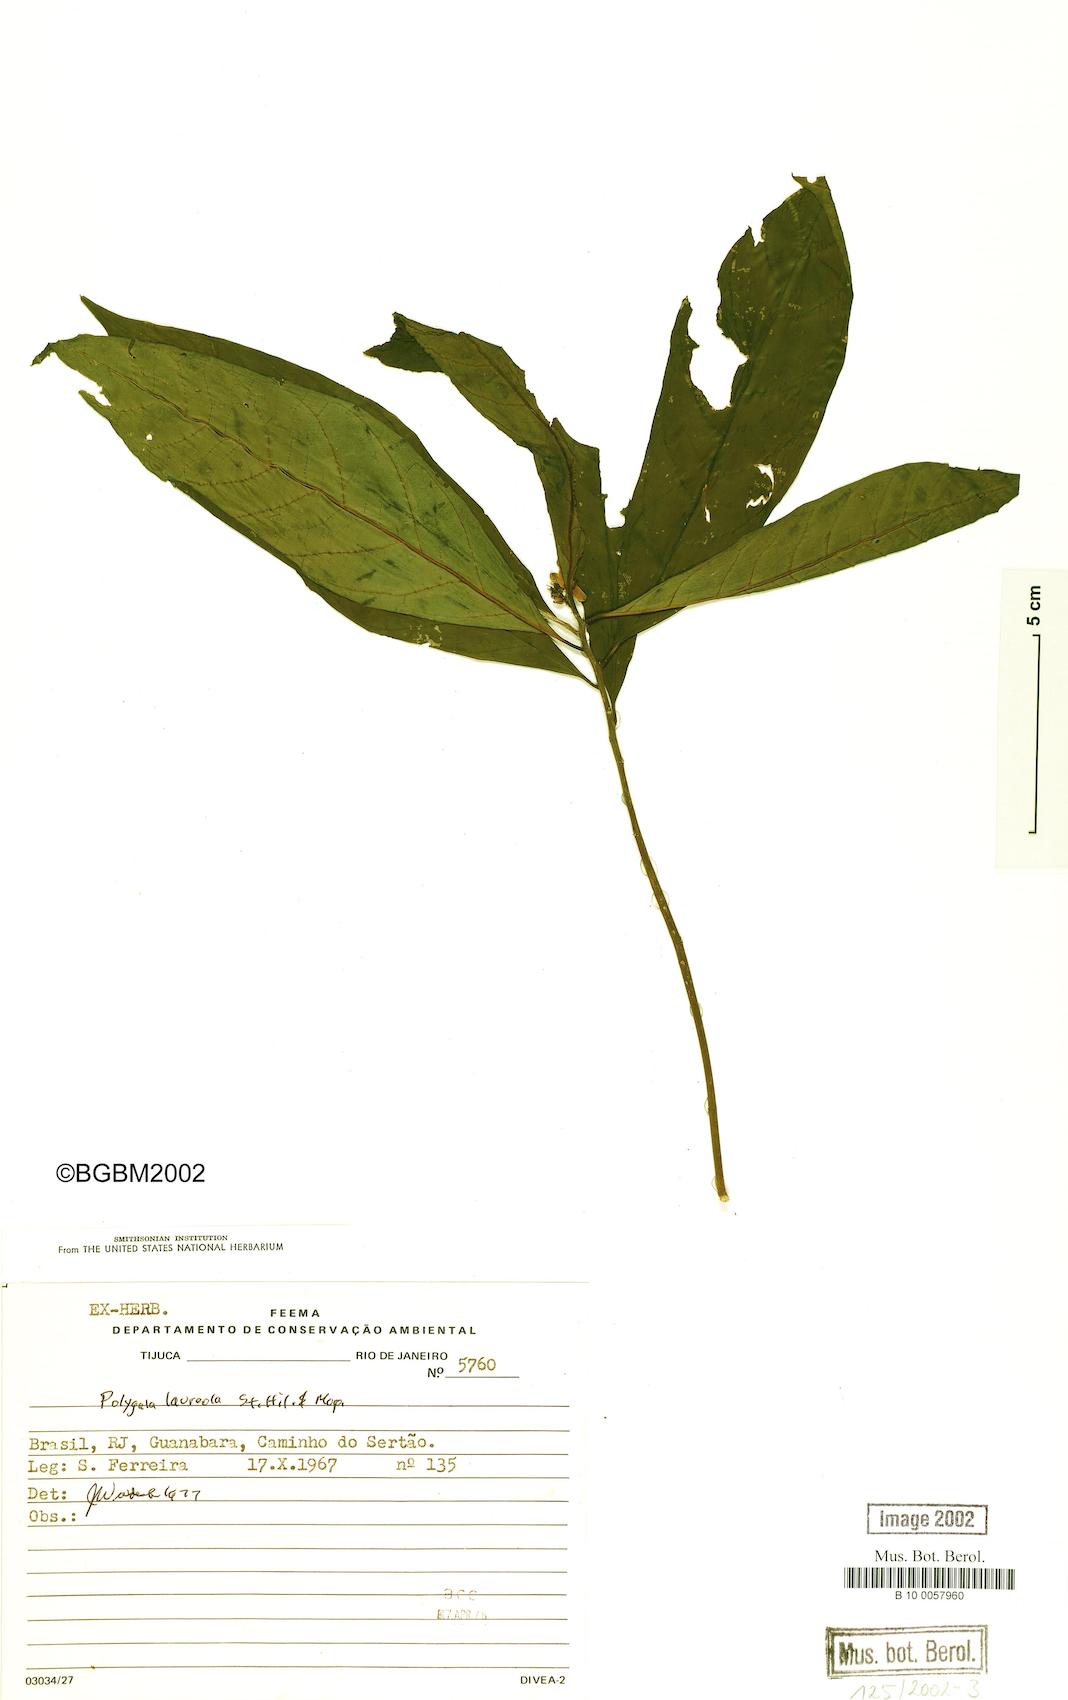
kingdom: Plantae
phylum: Tracheophyta
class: Magnoliopsida
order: Fabales
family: Polygalaceae
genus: Caamembeca
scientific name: Caamembeca salicifolia
